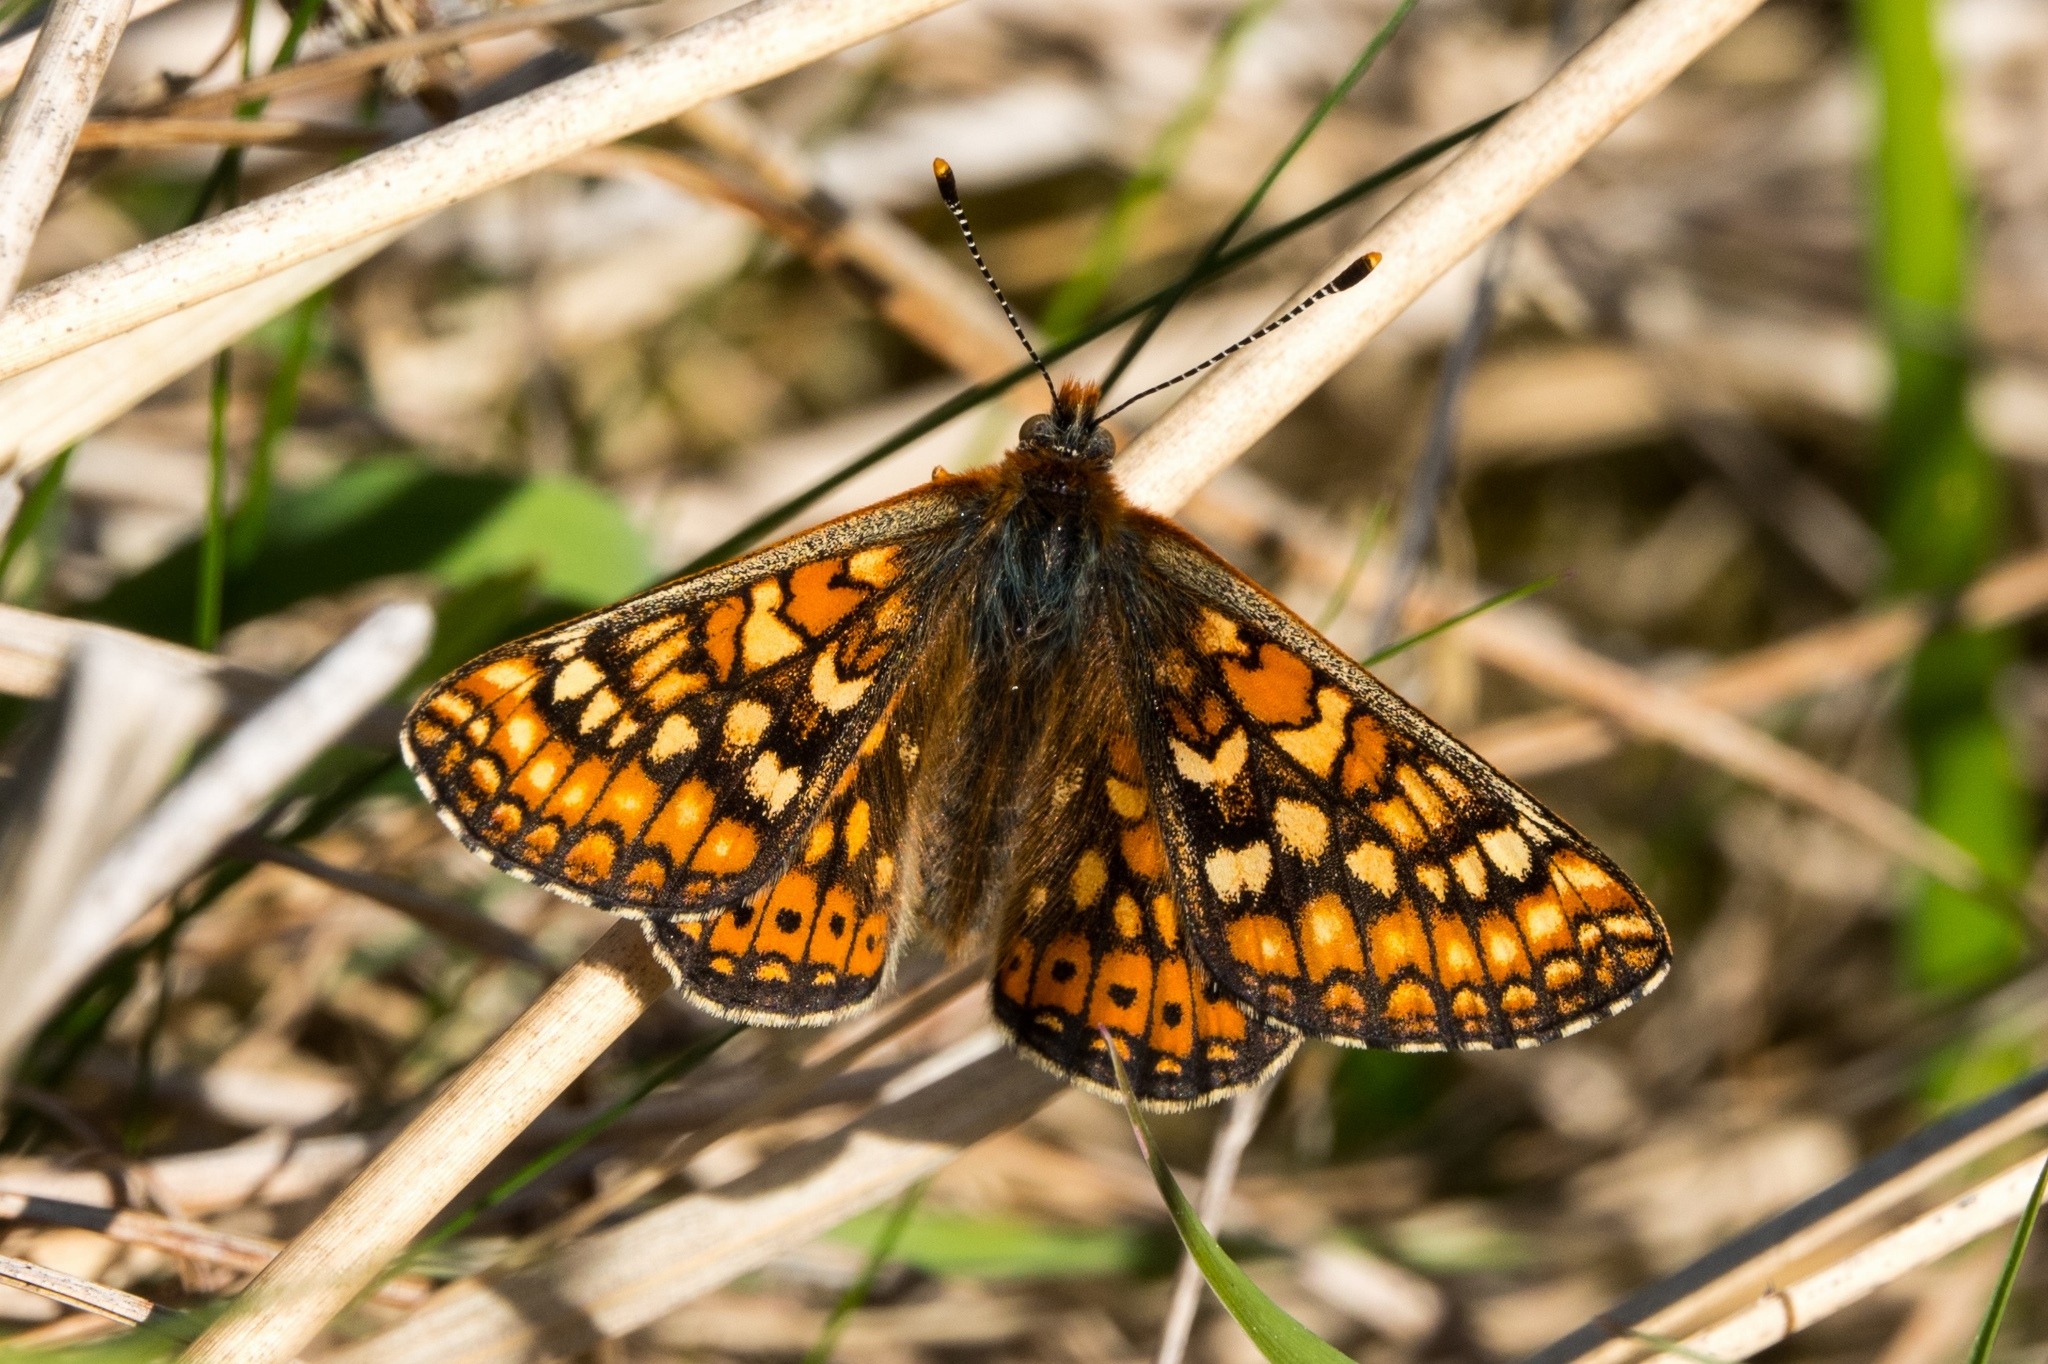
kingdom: Animalia
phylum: Arthropoda
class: Insecta
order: Lepidoptera
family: Nymphalidae
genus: Euphydryas
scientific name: Euphydryas aurinia
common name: Hedepletvinge
